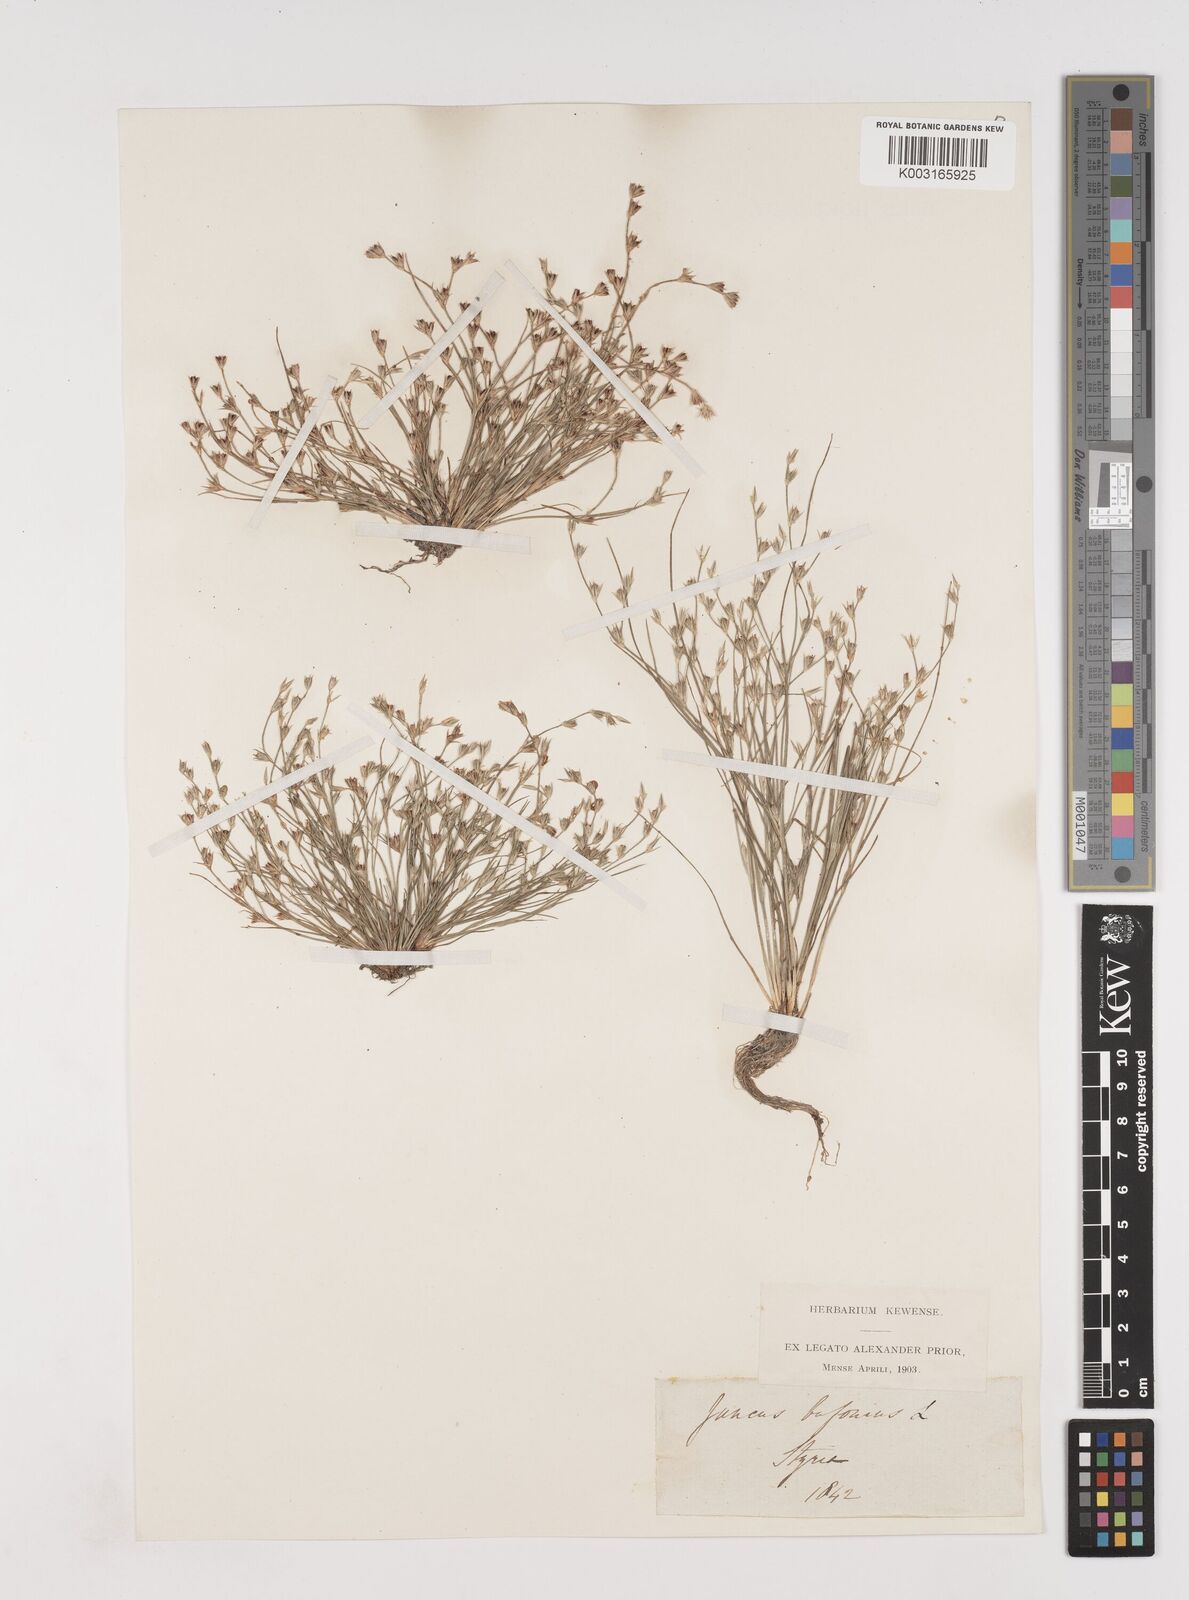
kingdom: Plantae
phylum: Tracheophyta
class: Liliopsida
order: Poales
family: Juncaceae
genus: Juncus
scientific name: Juncus bufonius
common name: Toad rush
